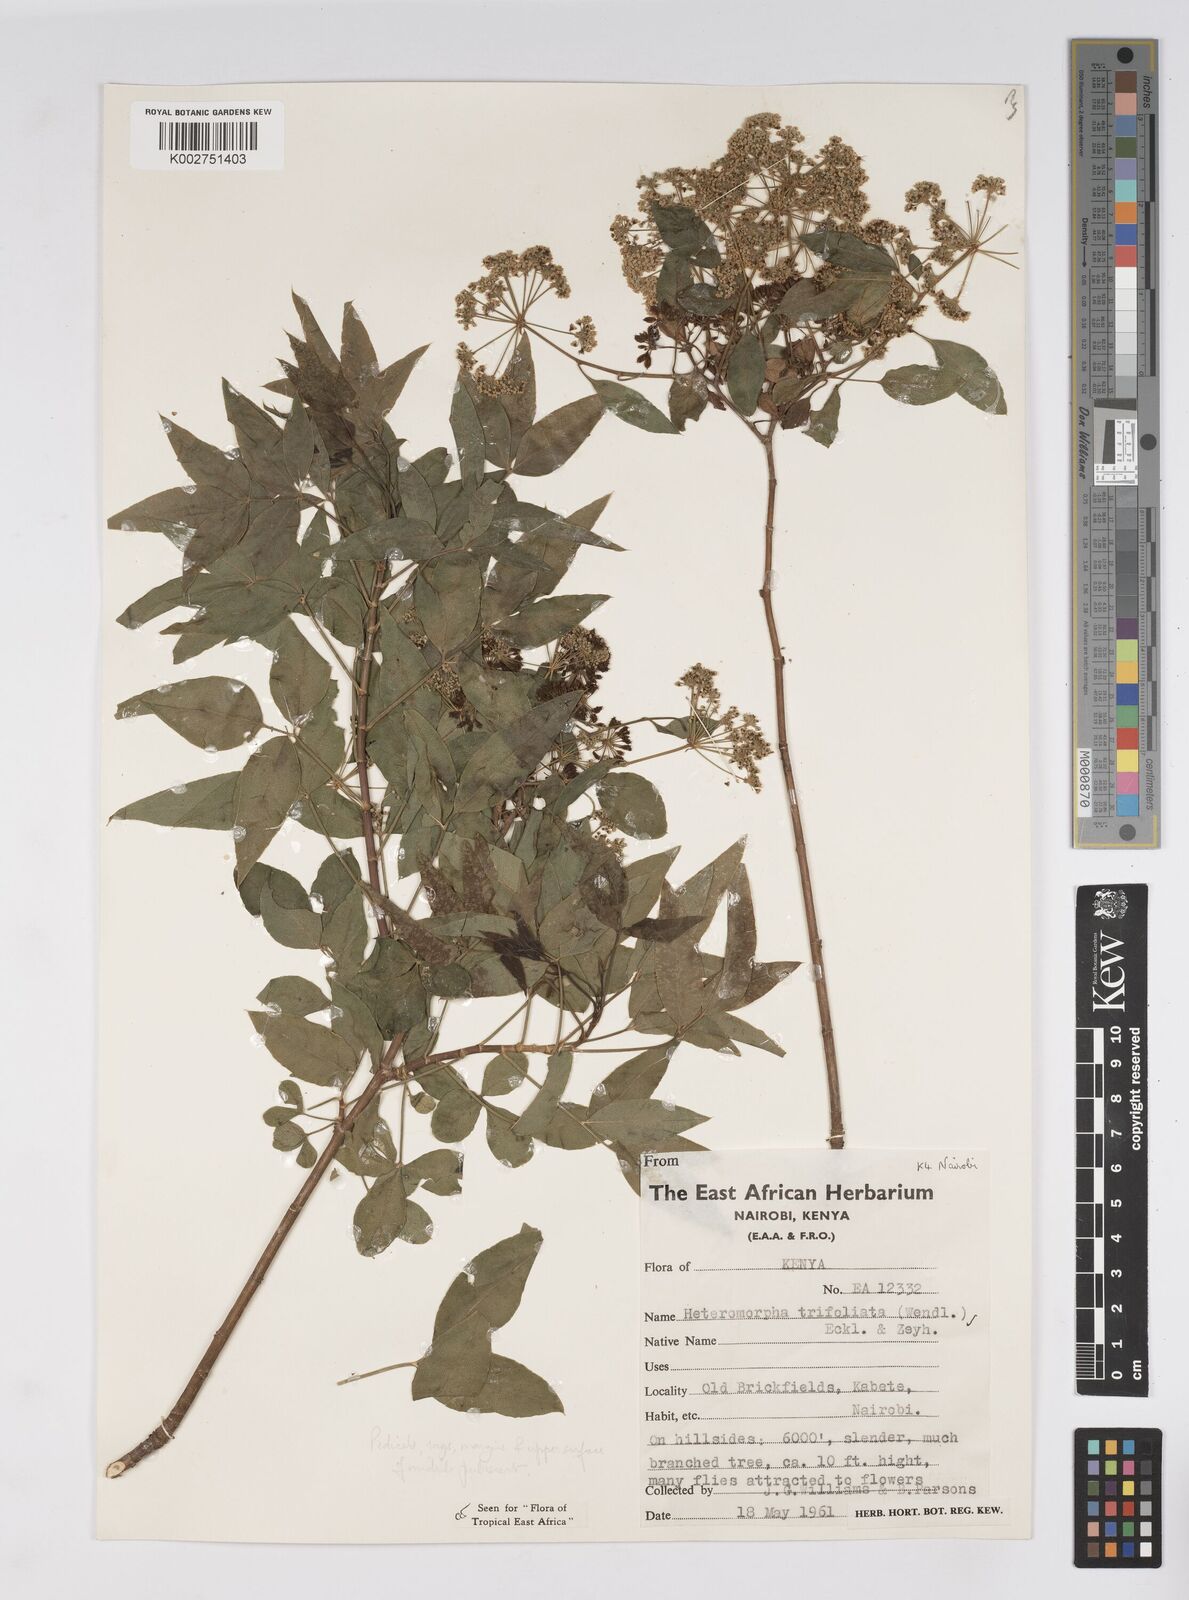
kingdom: Plantae
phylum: Tracheophyta
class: Magnoliopsida
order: Apiales
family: Apiaceae
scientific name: Apiaceae
